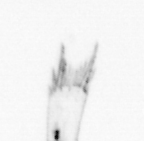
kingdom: Animalia
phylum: Arthropoda
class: Copepoda
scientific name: Copepoda
